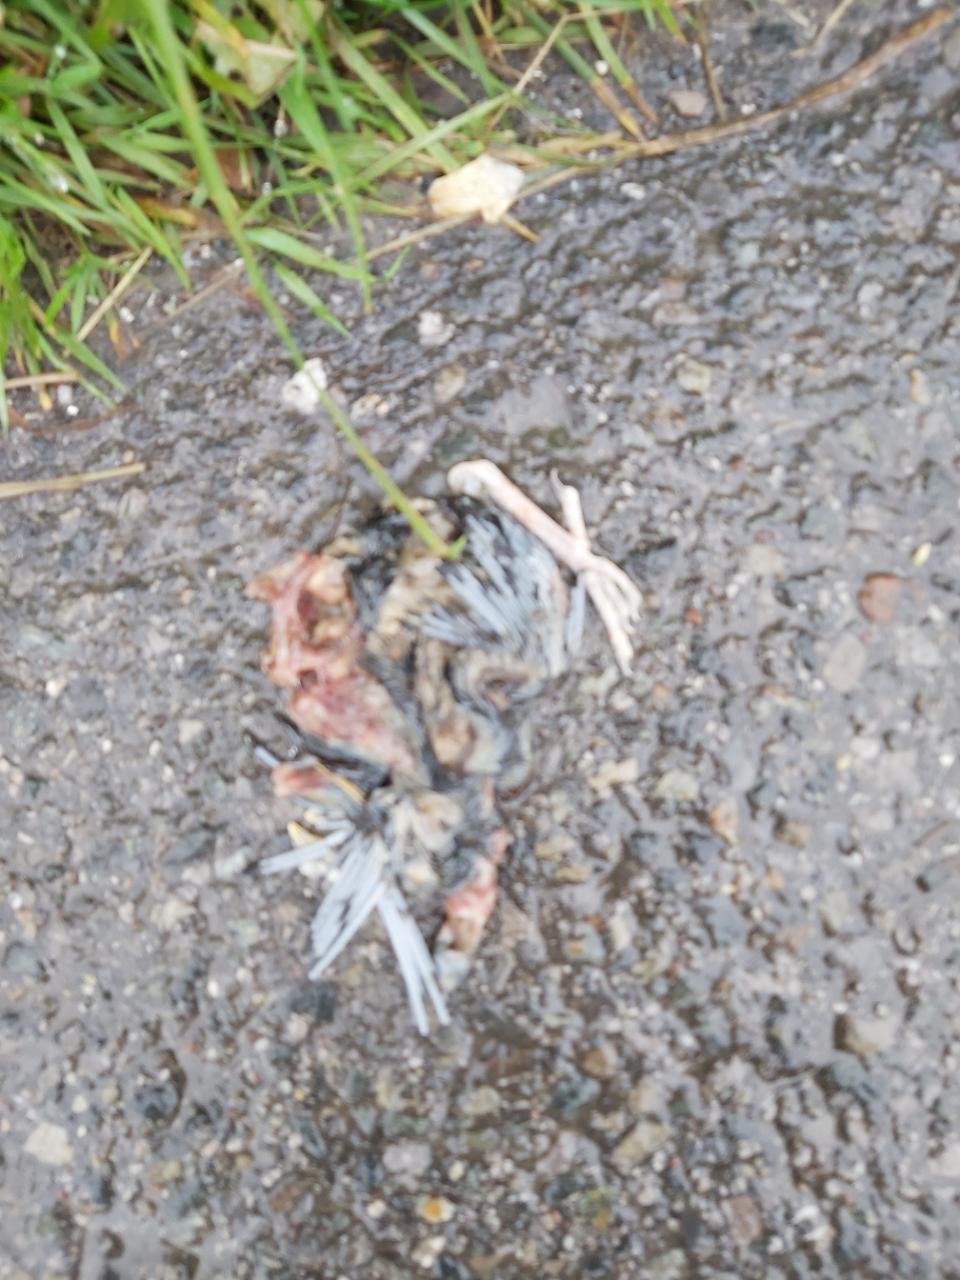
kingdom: Animalia
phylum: Chordata
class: Aves
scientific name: Aves
